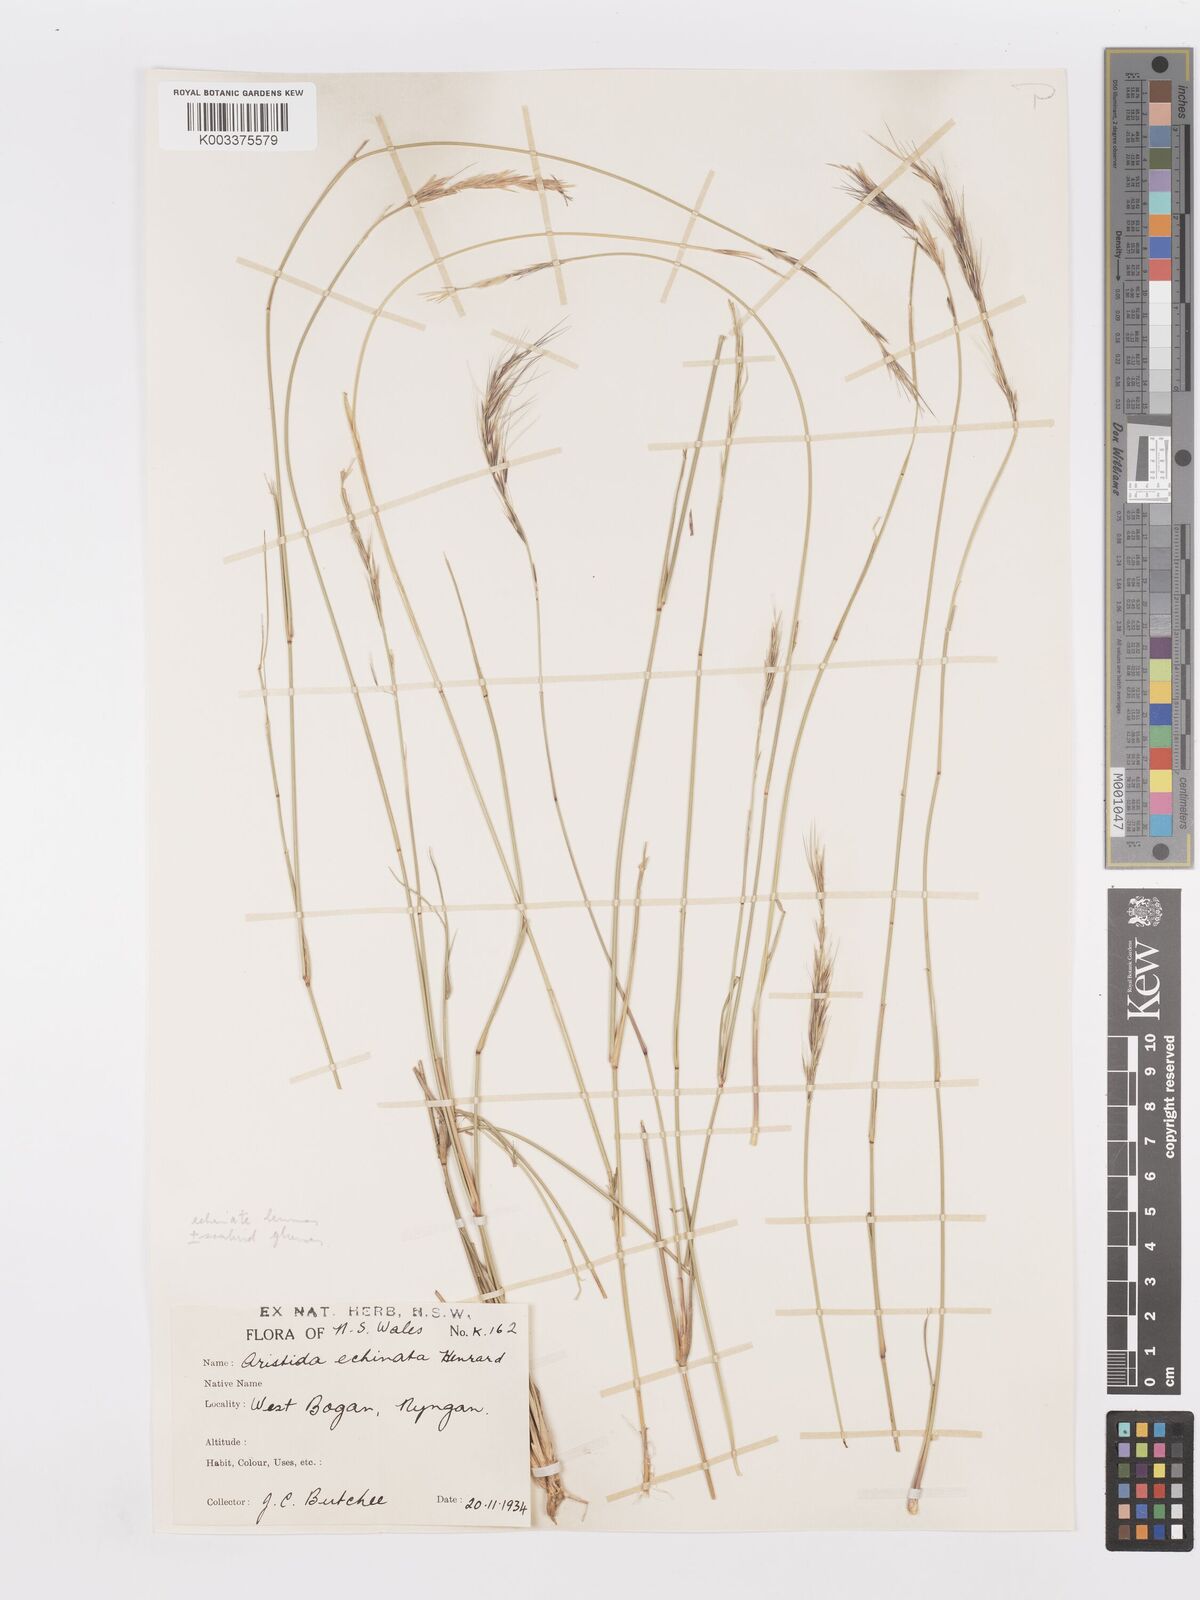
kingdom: Plantae
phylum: Tracheophyta
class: Liliopsida
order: Poales
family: Poaceae
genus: Aristida
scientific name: Aristida echinata
